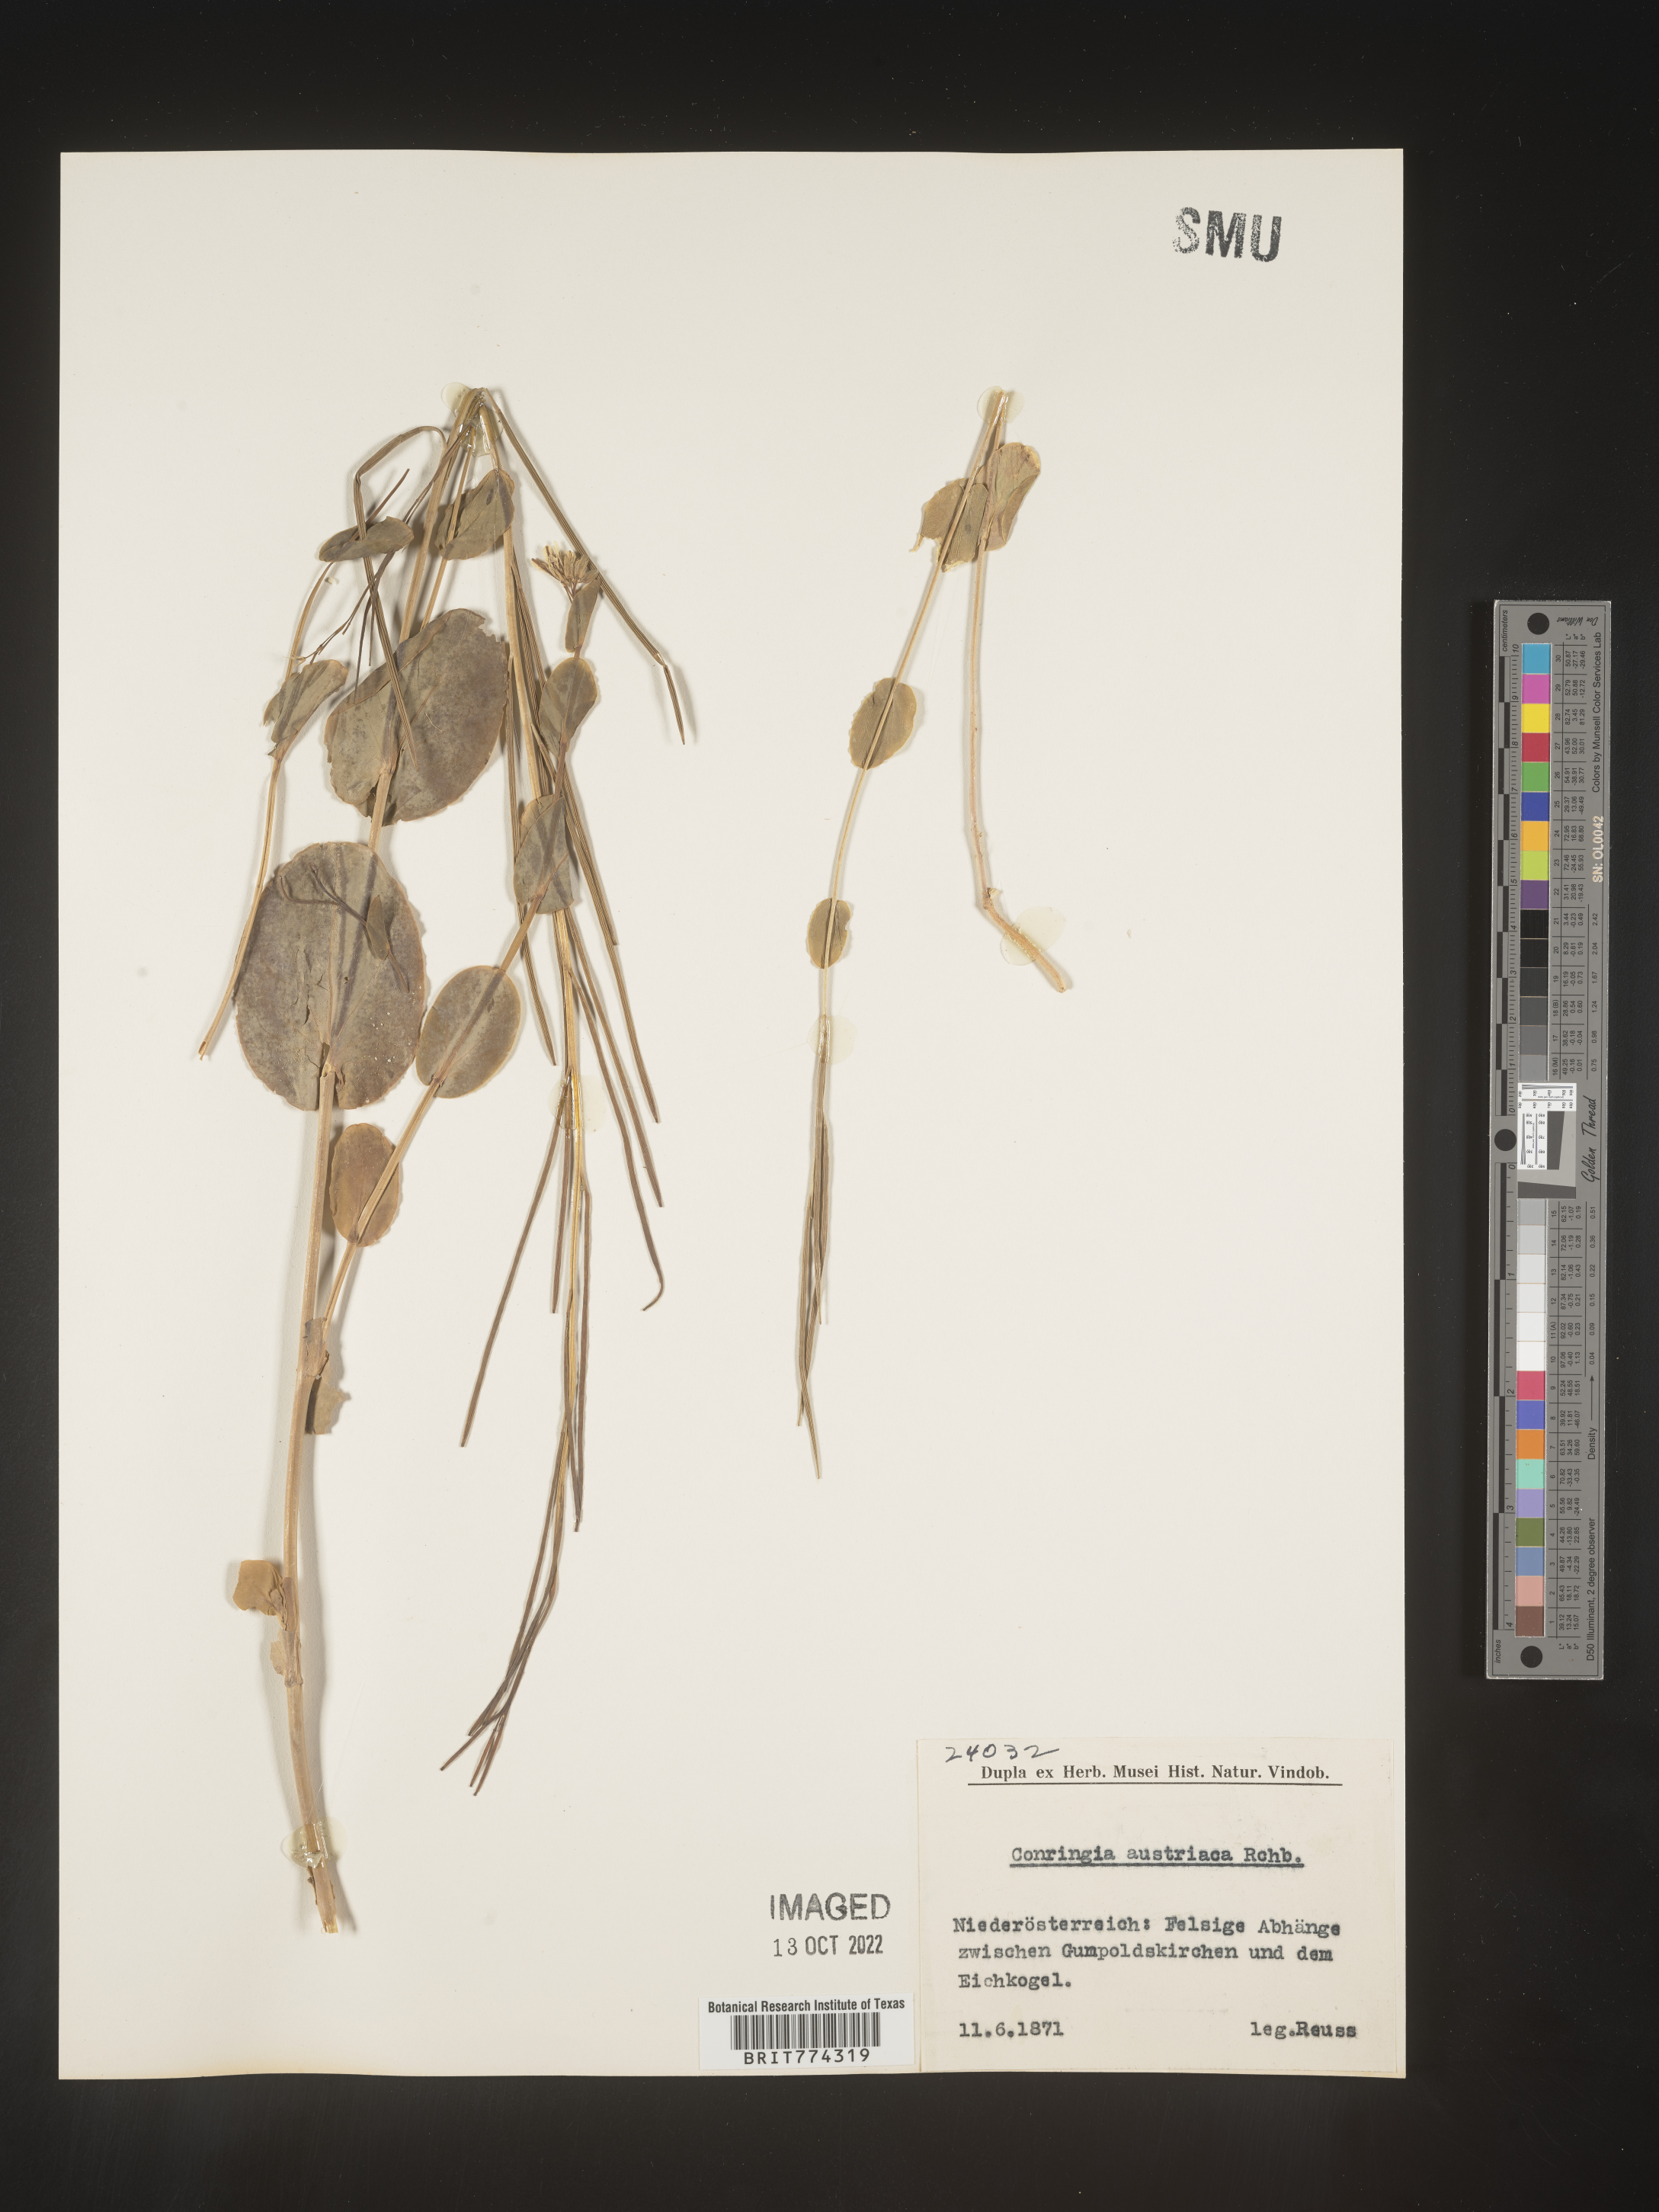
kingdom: Plantae
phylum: Tracheophyta
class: Magnoliopsida
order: Brassicales
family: Brassicaceae
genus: Conringia
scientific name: Conringia
